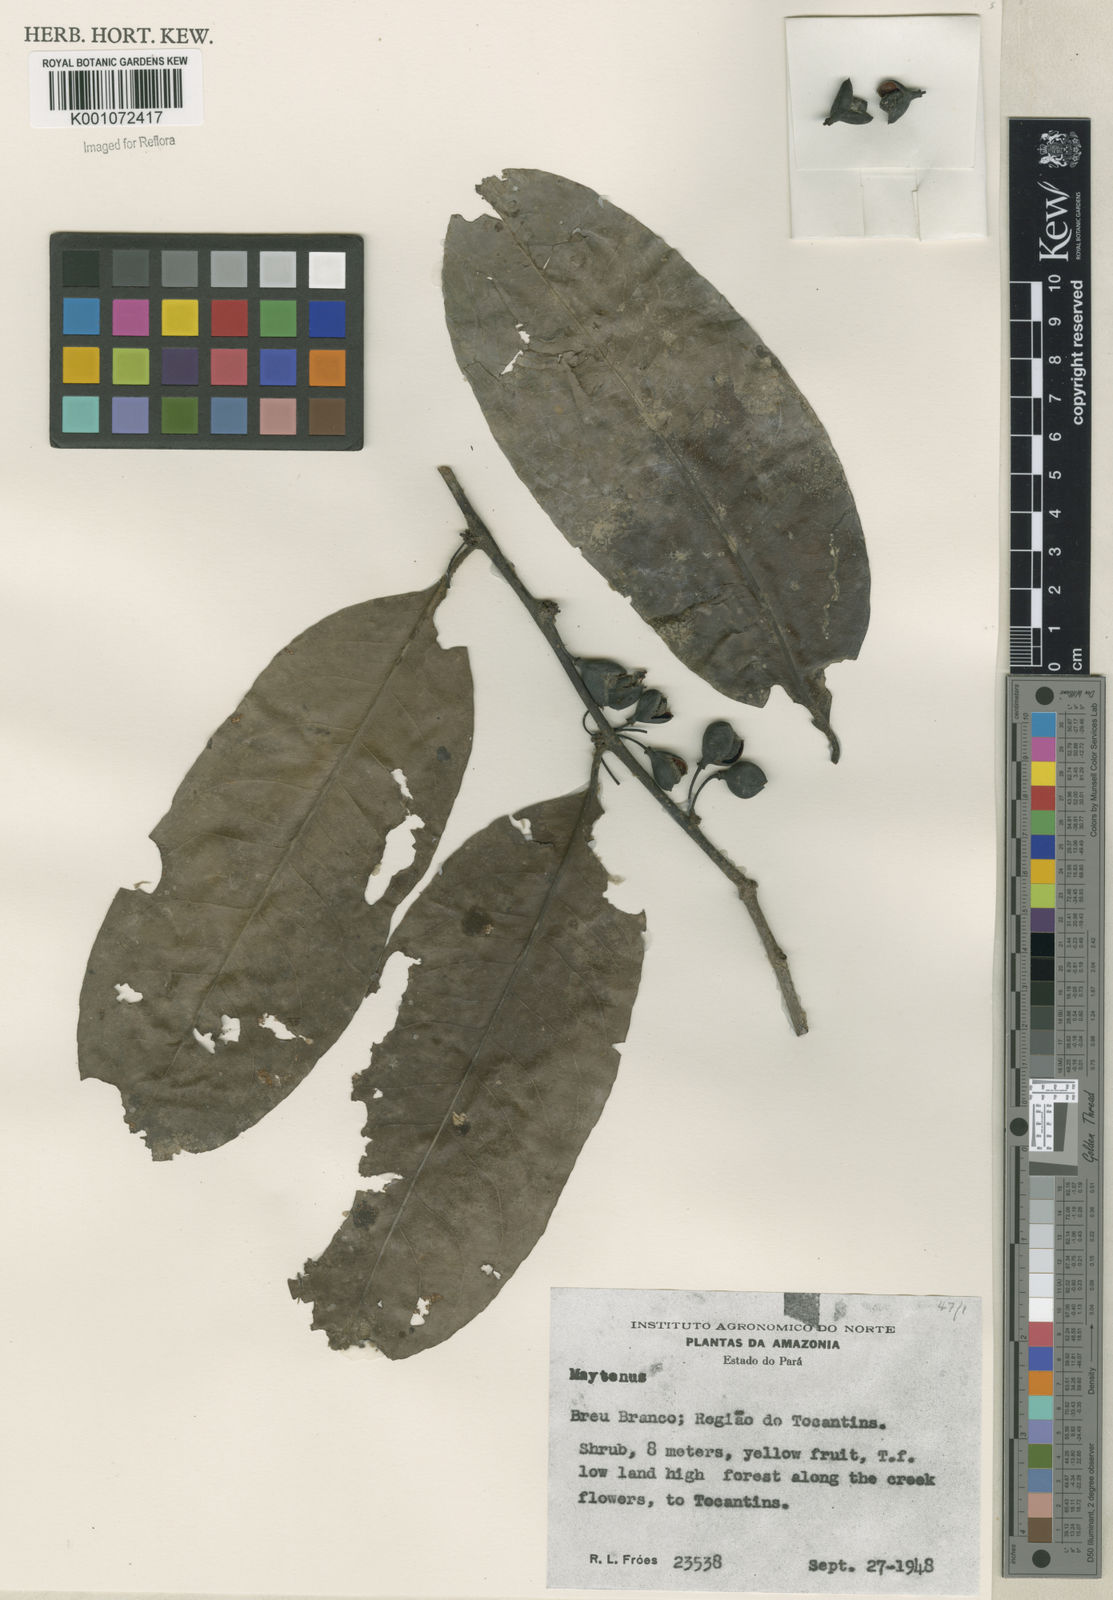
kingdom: Plantae
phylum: Tracheophyta
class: Magnoliopsida
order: Celastrales
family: Celastraceae
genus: Maytenus
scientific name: Maytenus
